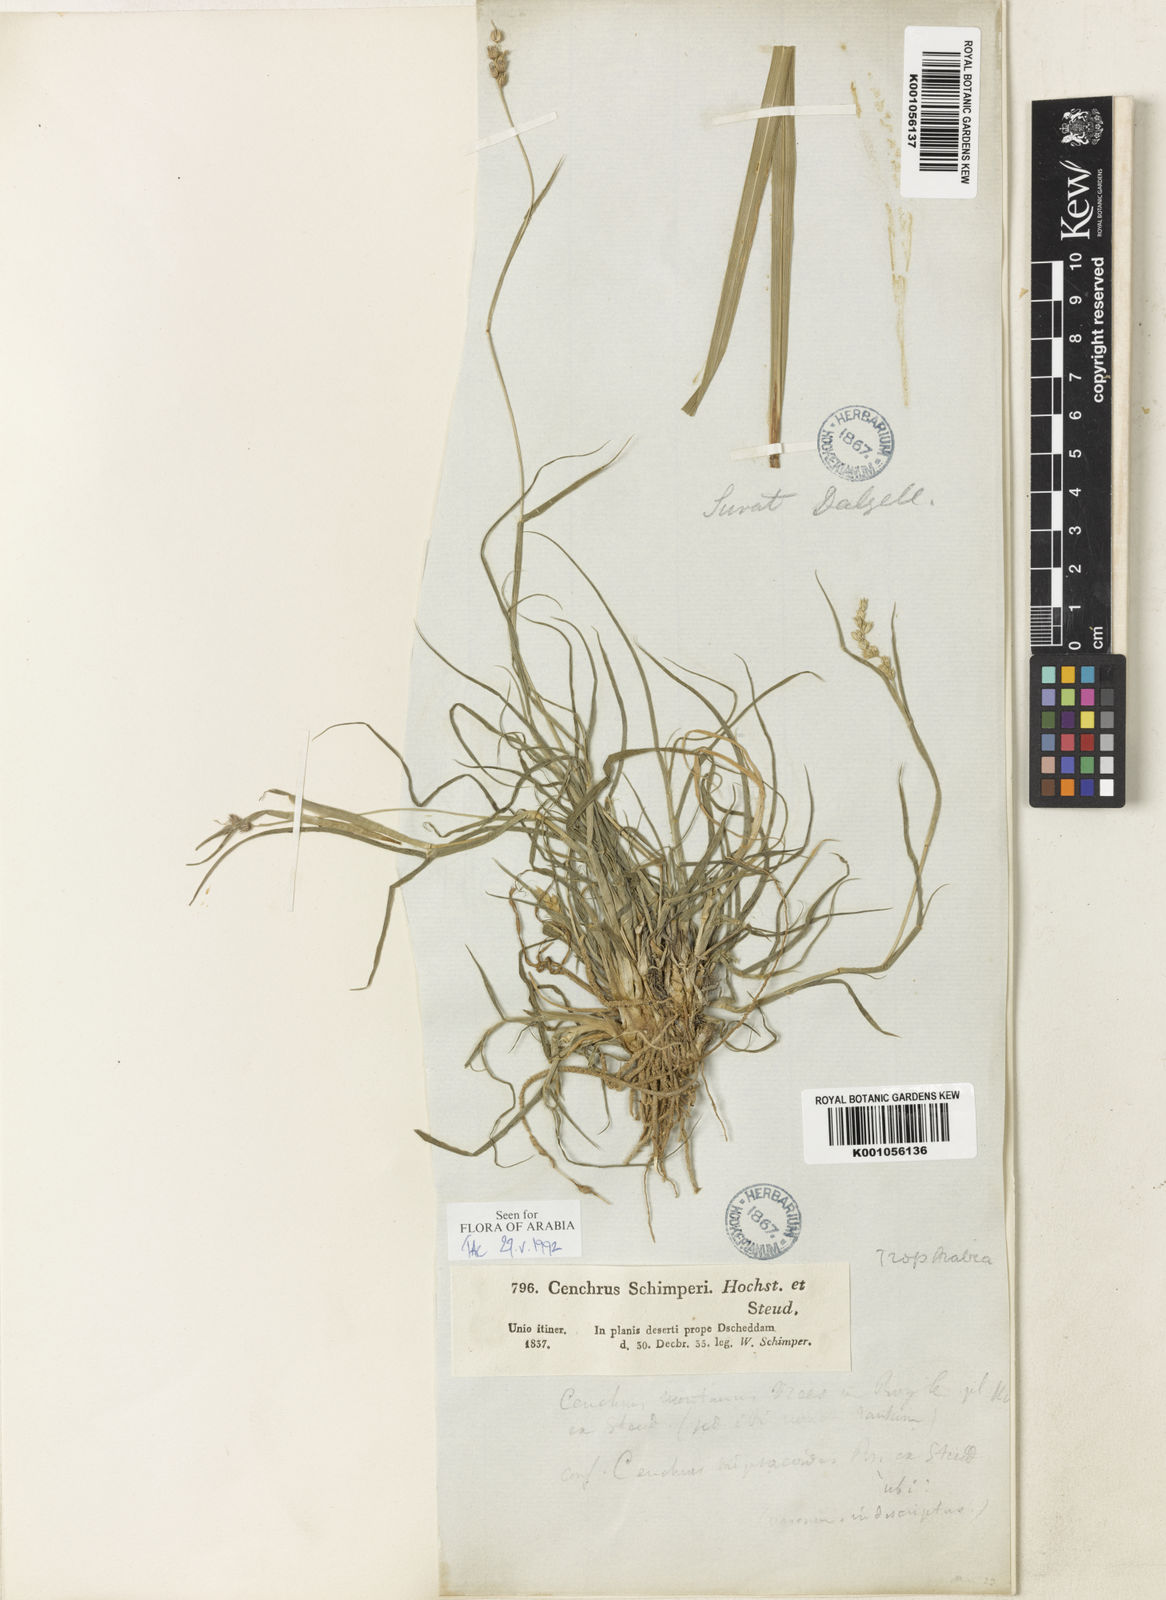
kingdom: Plantae
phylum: Tracheophyta
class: Liliopsida
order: Poales
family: Poaceae
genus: Cenchrus
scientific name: Cenchrus
